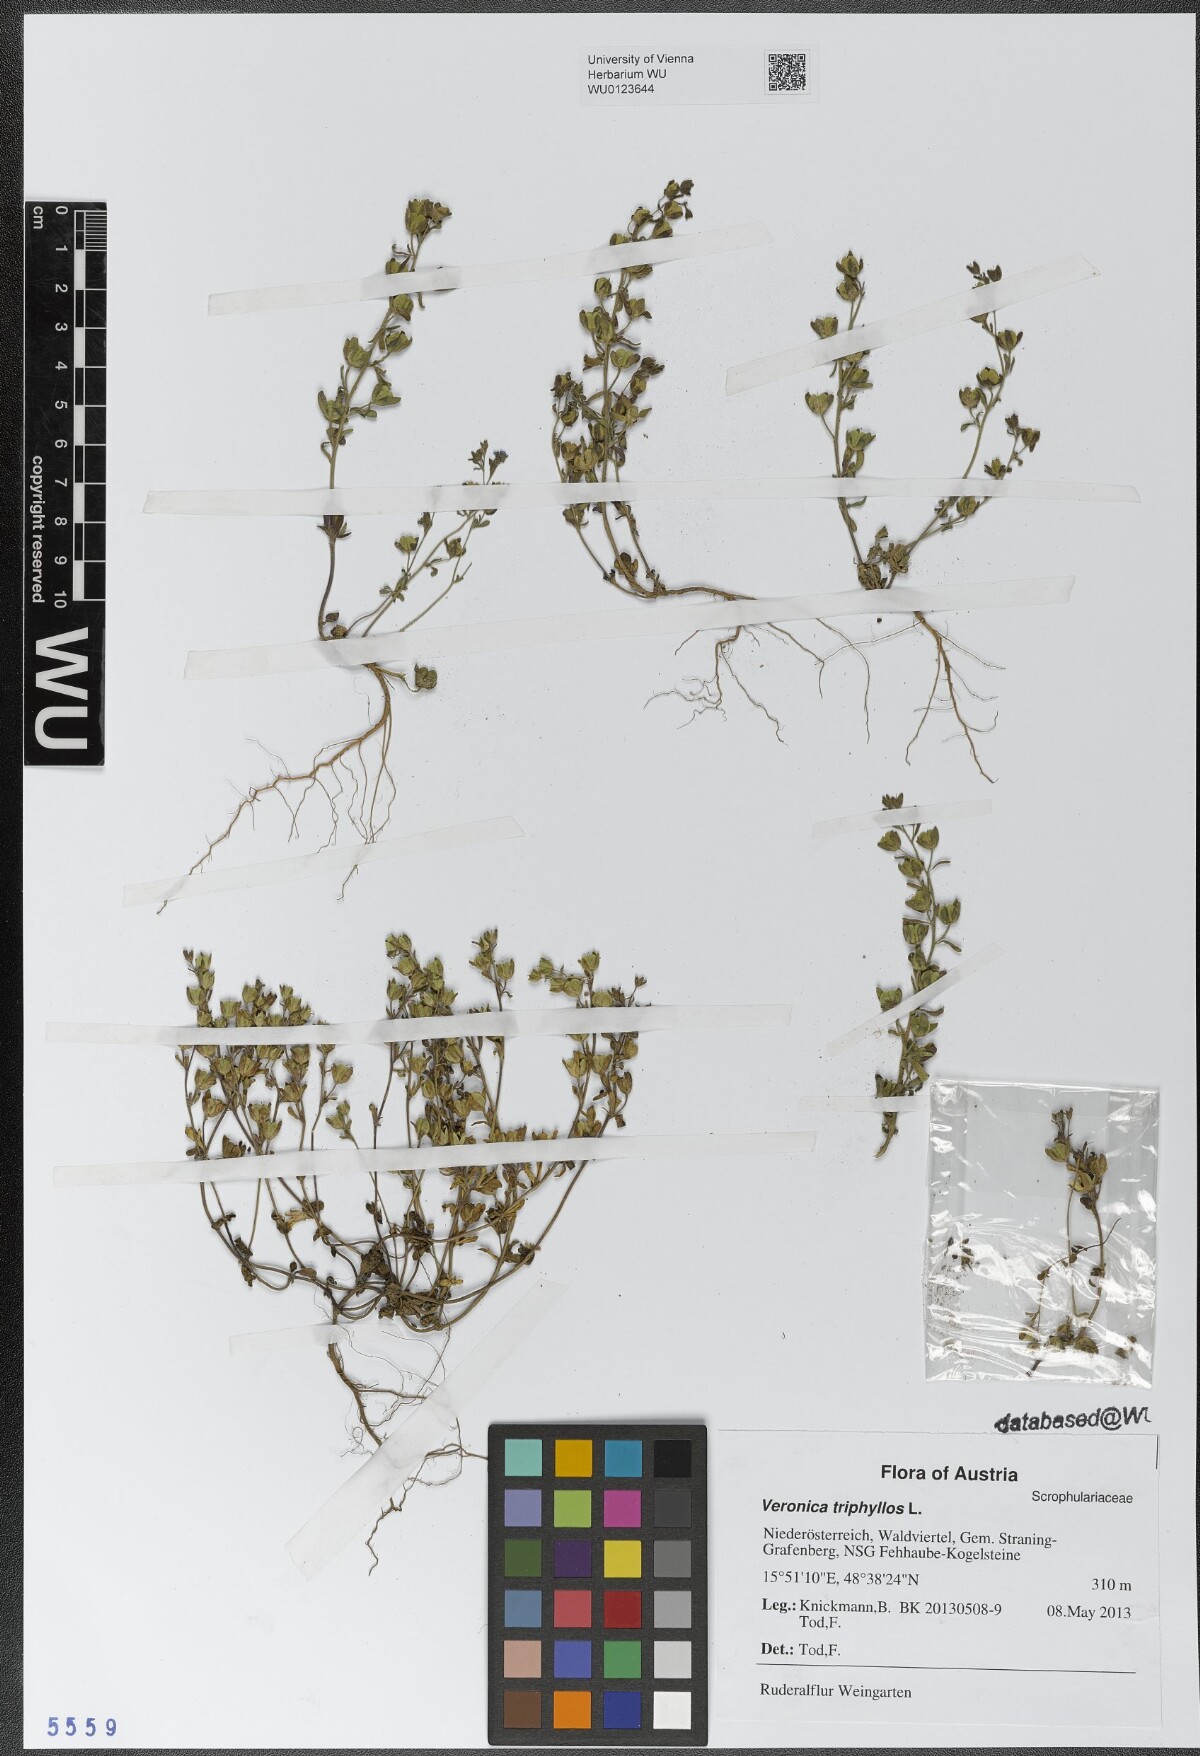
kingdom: Plantae
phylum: Tracheophyta
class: Magnoliopsida
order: Lamiales
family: Plantaginaceae
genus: Veronica
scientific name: Veronica triphyllos
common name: Fingered speedwell
